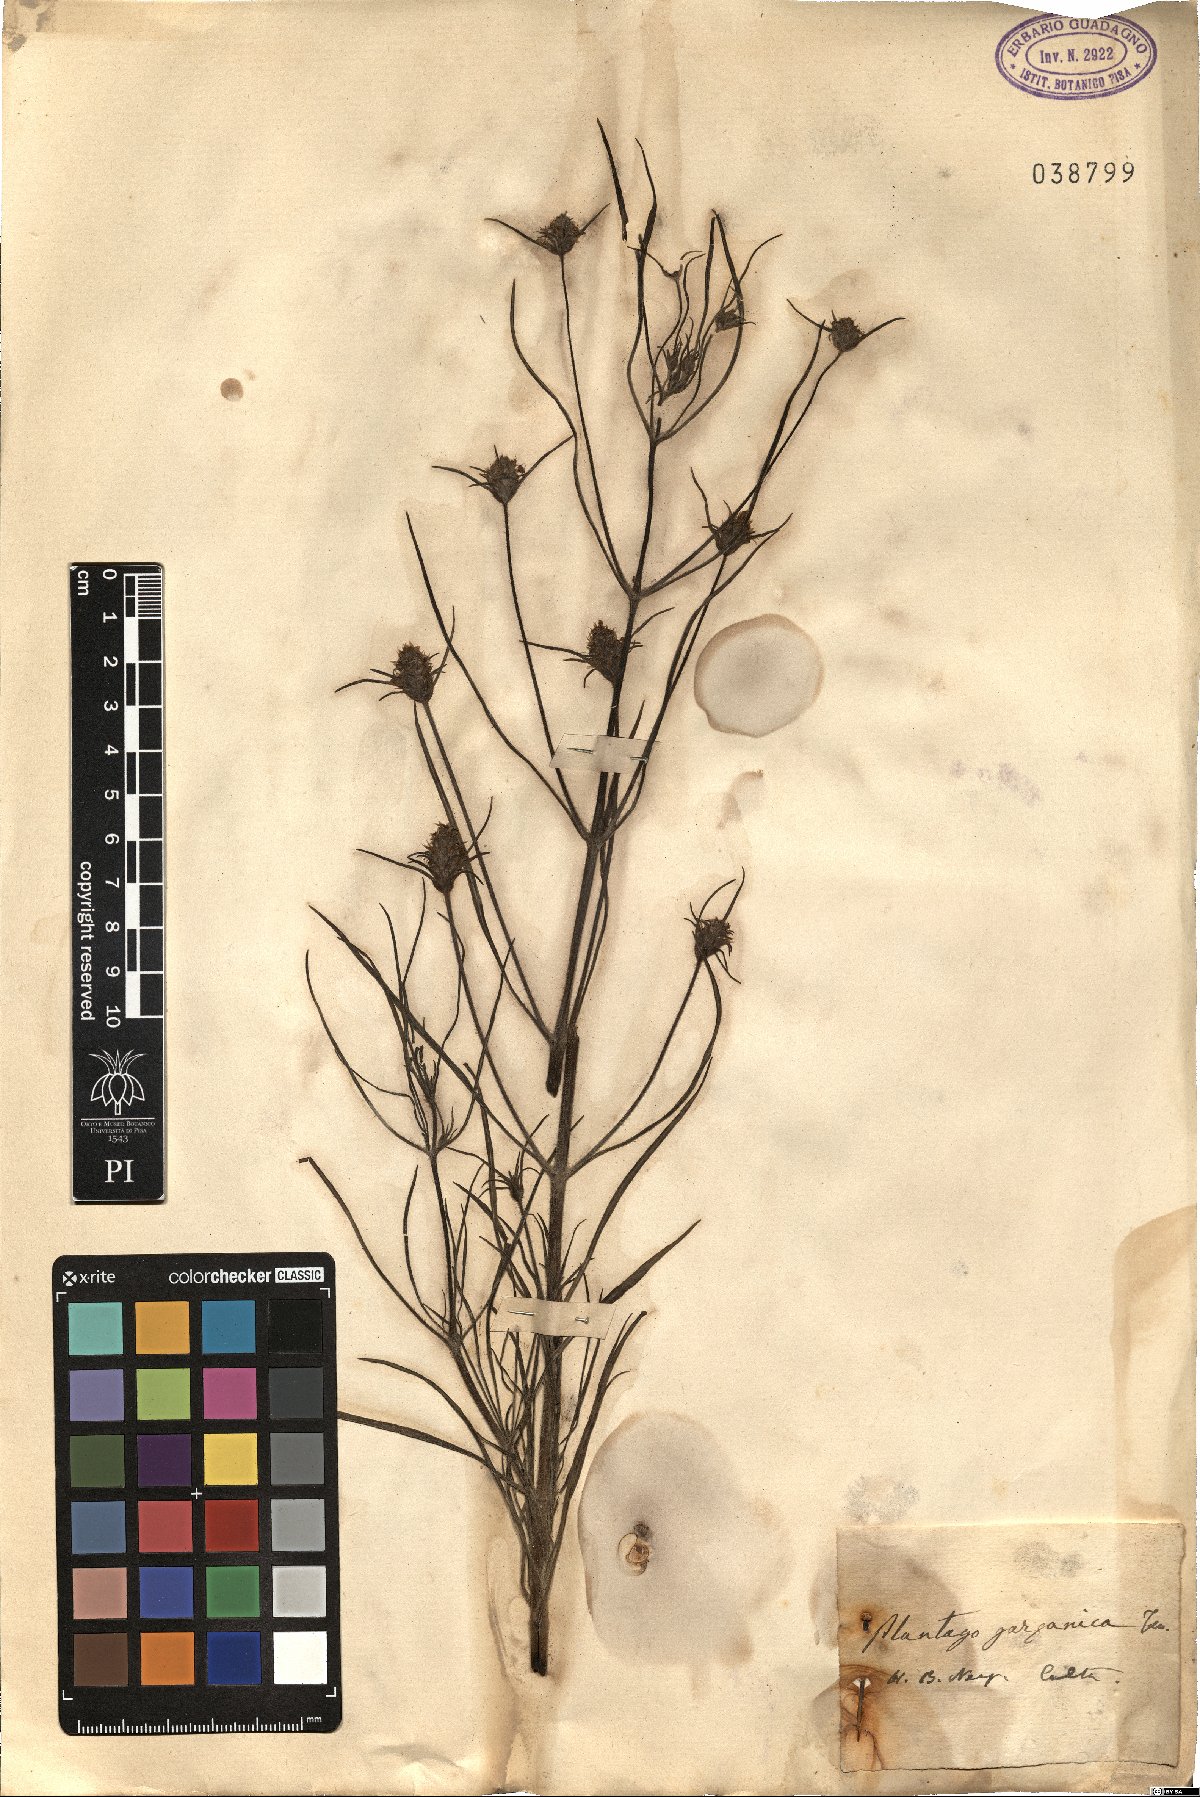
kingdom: Plantae
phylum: Tracheophyta
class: Magnoliopsida
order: Lamiales
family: Plantaginaceae
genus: Plantago
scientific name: Plantago afra
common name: Glandular plantain
